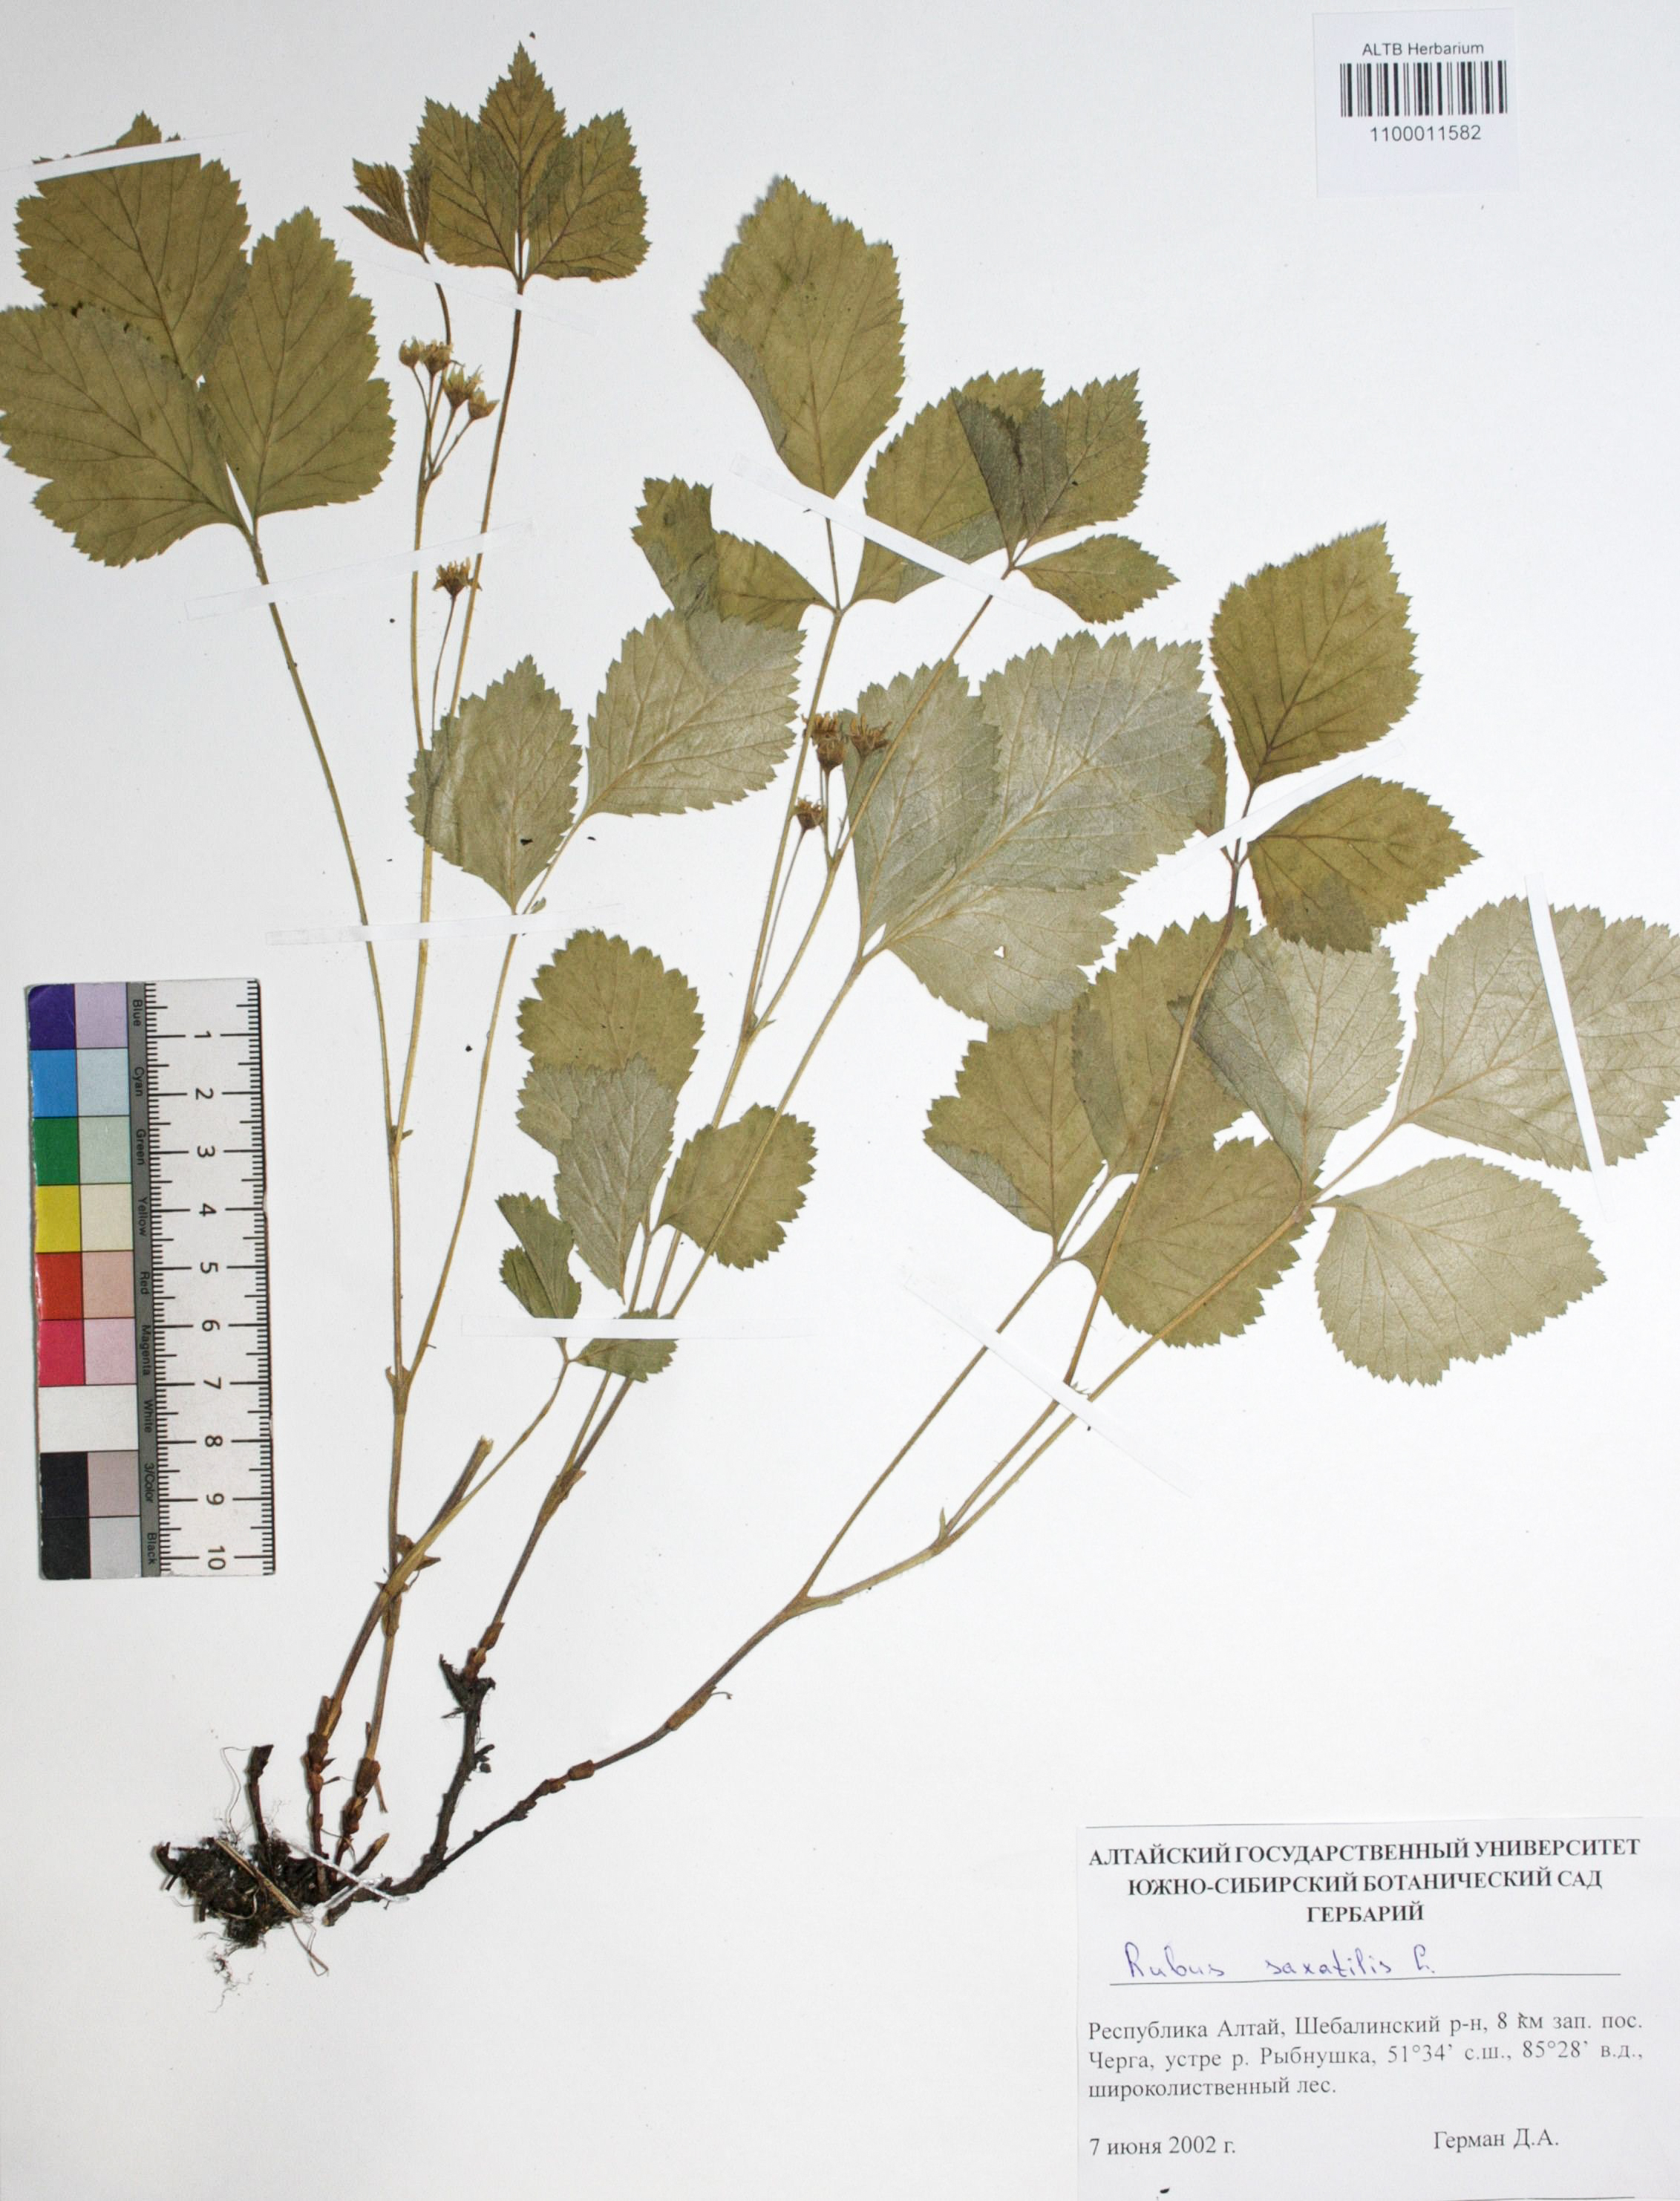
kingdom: Plantae
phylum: Tracheophyta
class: Magnoliopsida
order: Rosales
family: Rosaceae
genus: Rubus
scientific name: Rubus saxatilis
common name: Stone bramble
